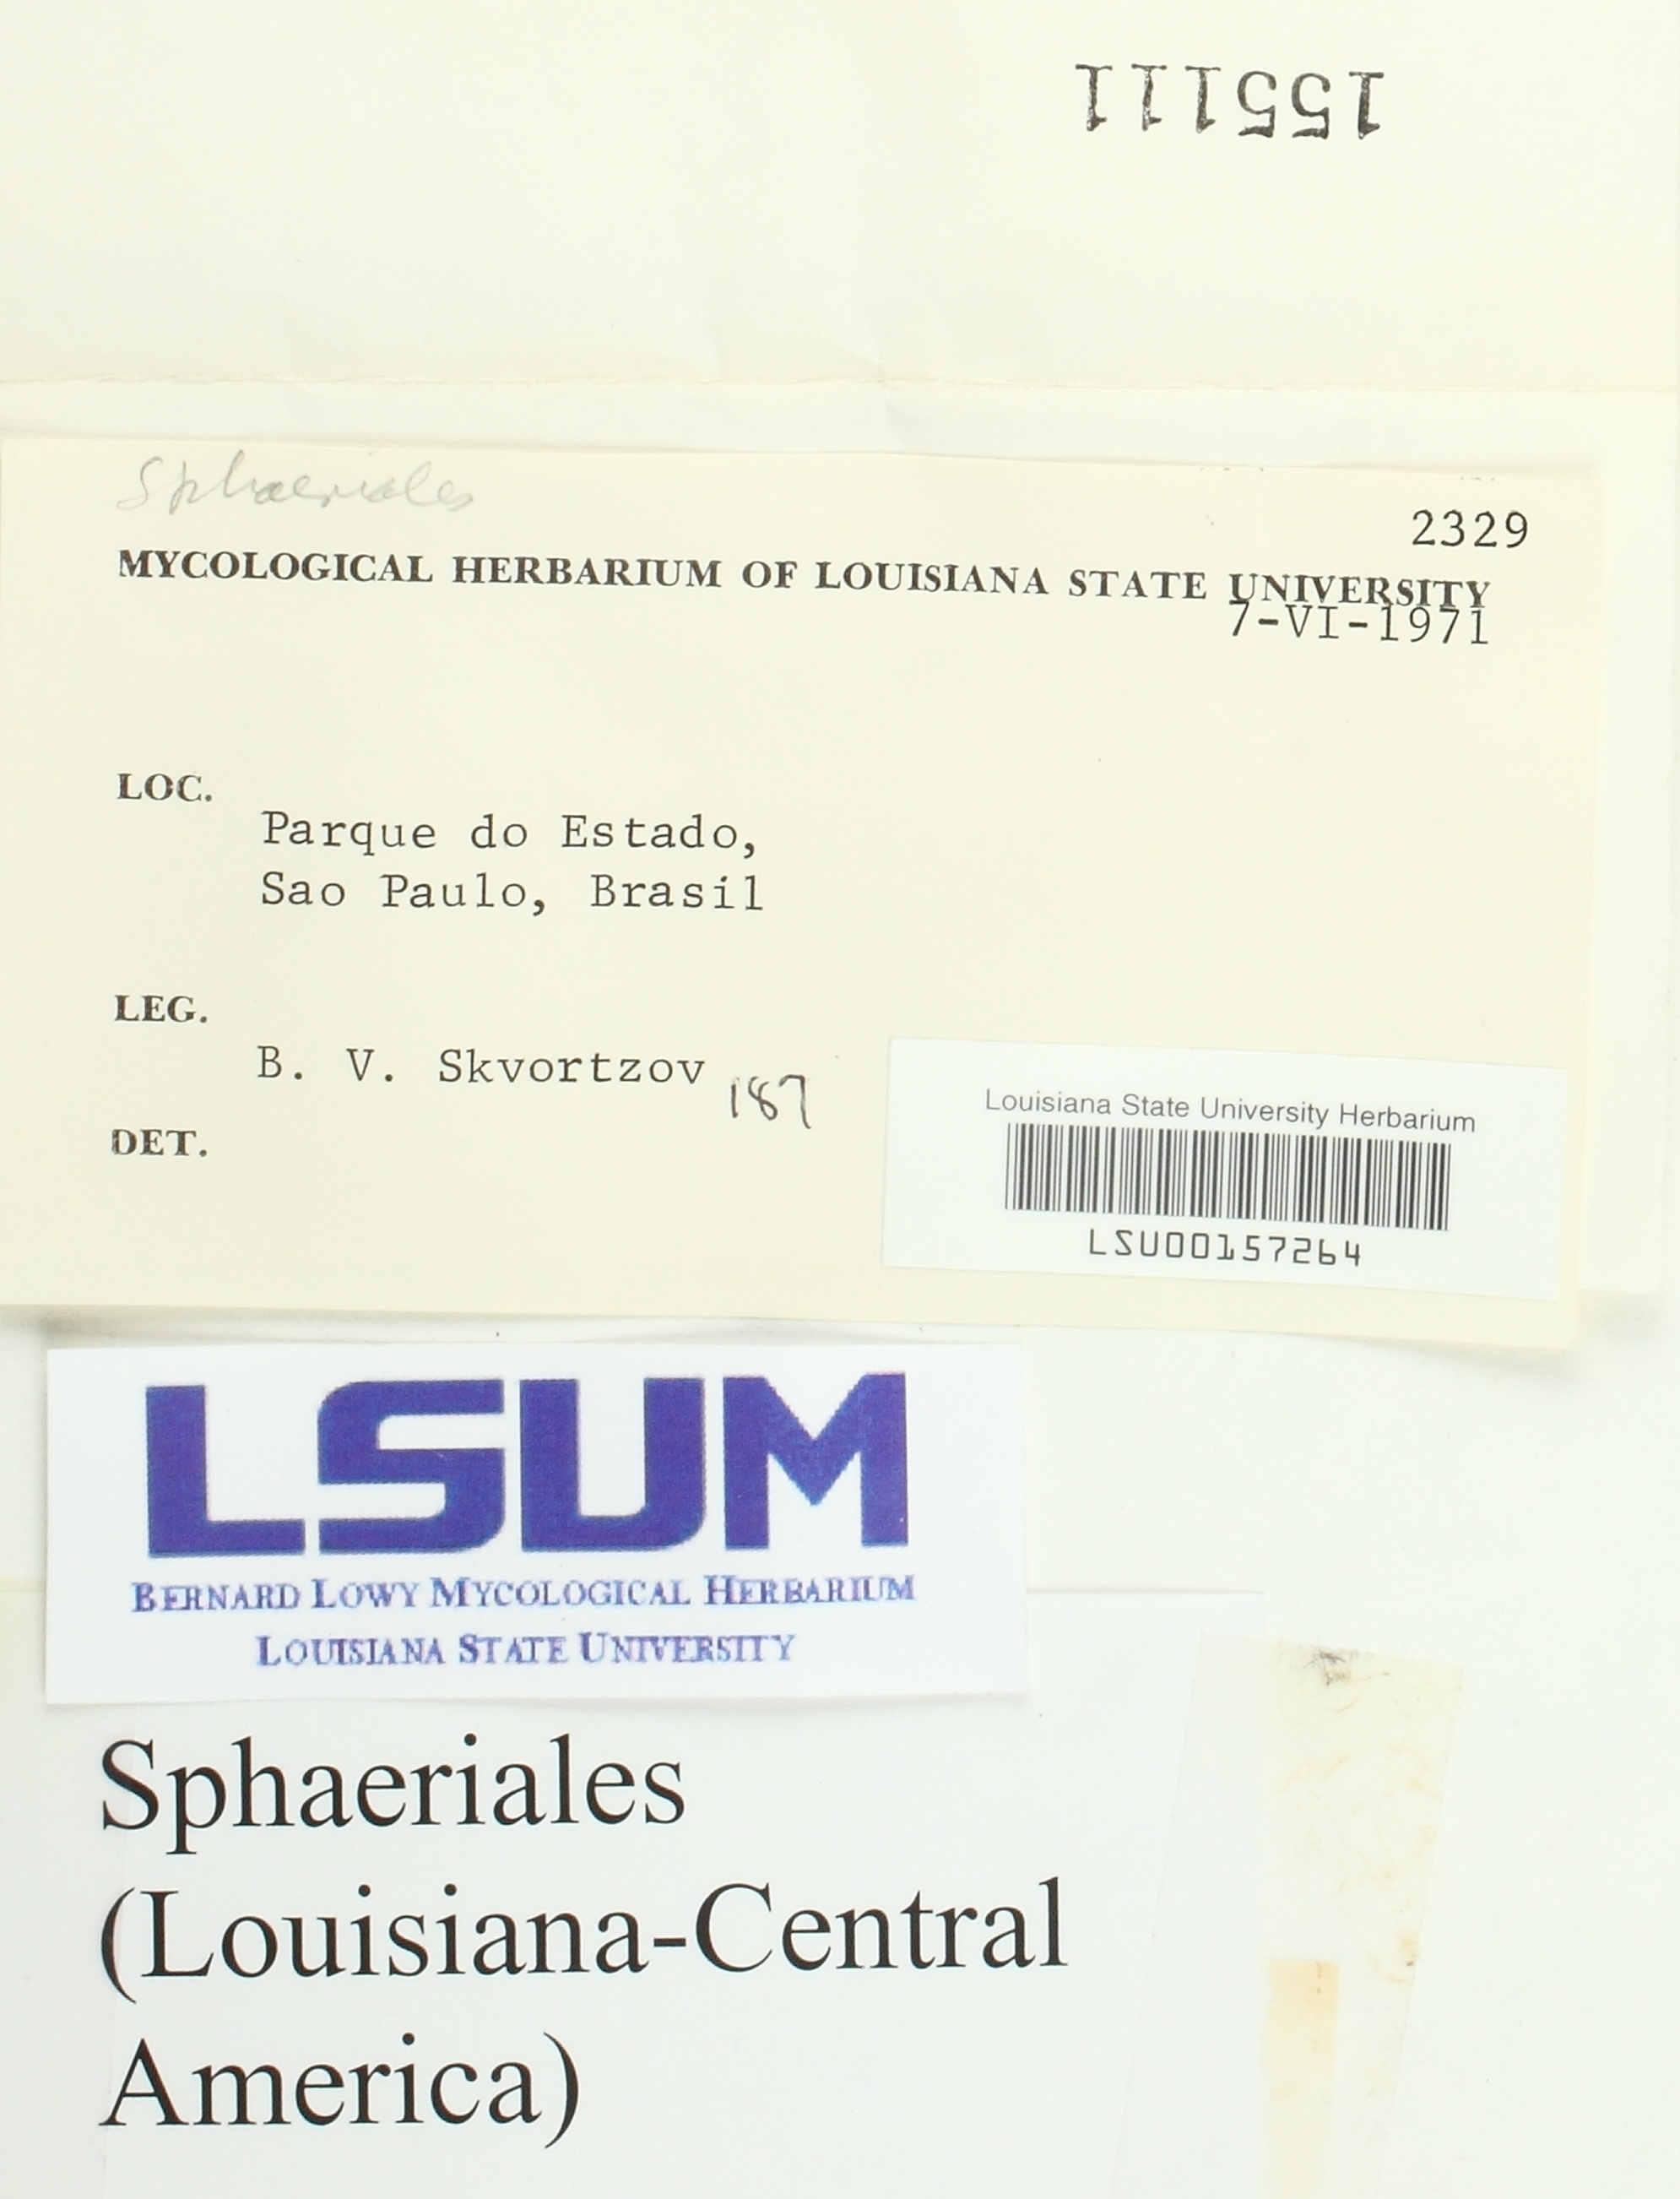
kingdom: Fungi
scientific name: Fungi
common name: Fungi
